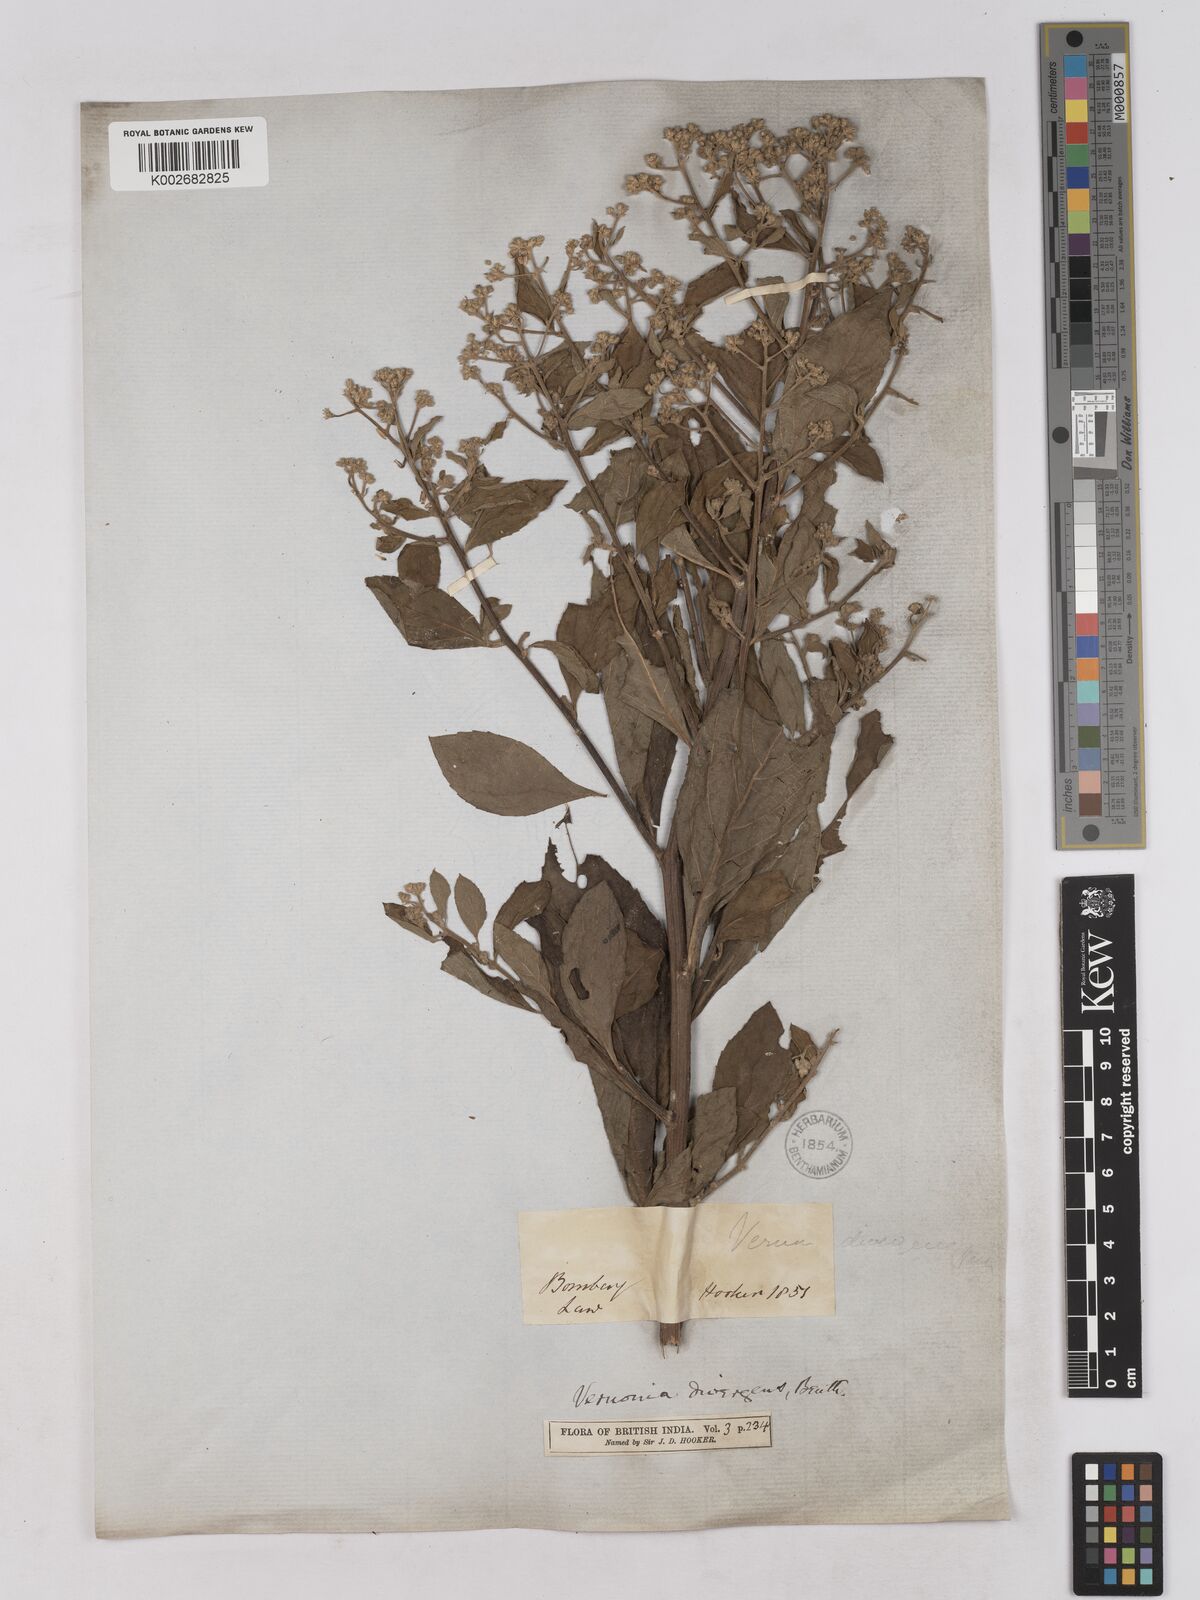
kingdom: Plantae
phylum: Tracheophyta
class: Magnoliopsida
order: Asterales
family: Asteraceae
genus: Acilepis
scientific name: Acilepis divergens
